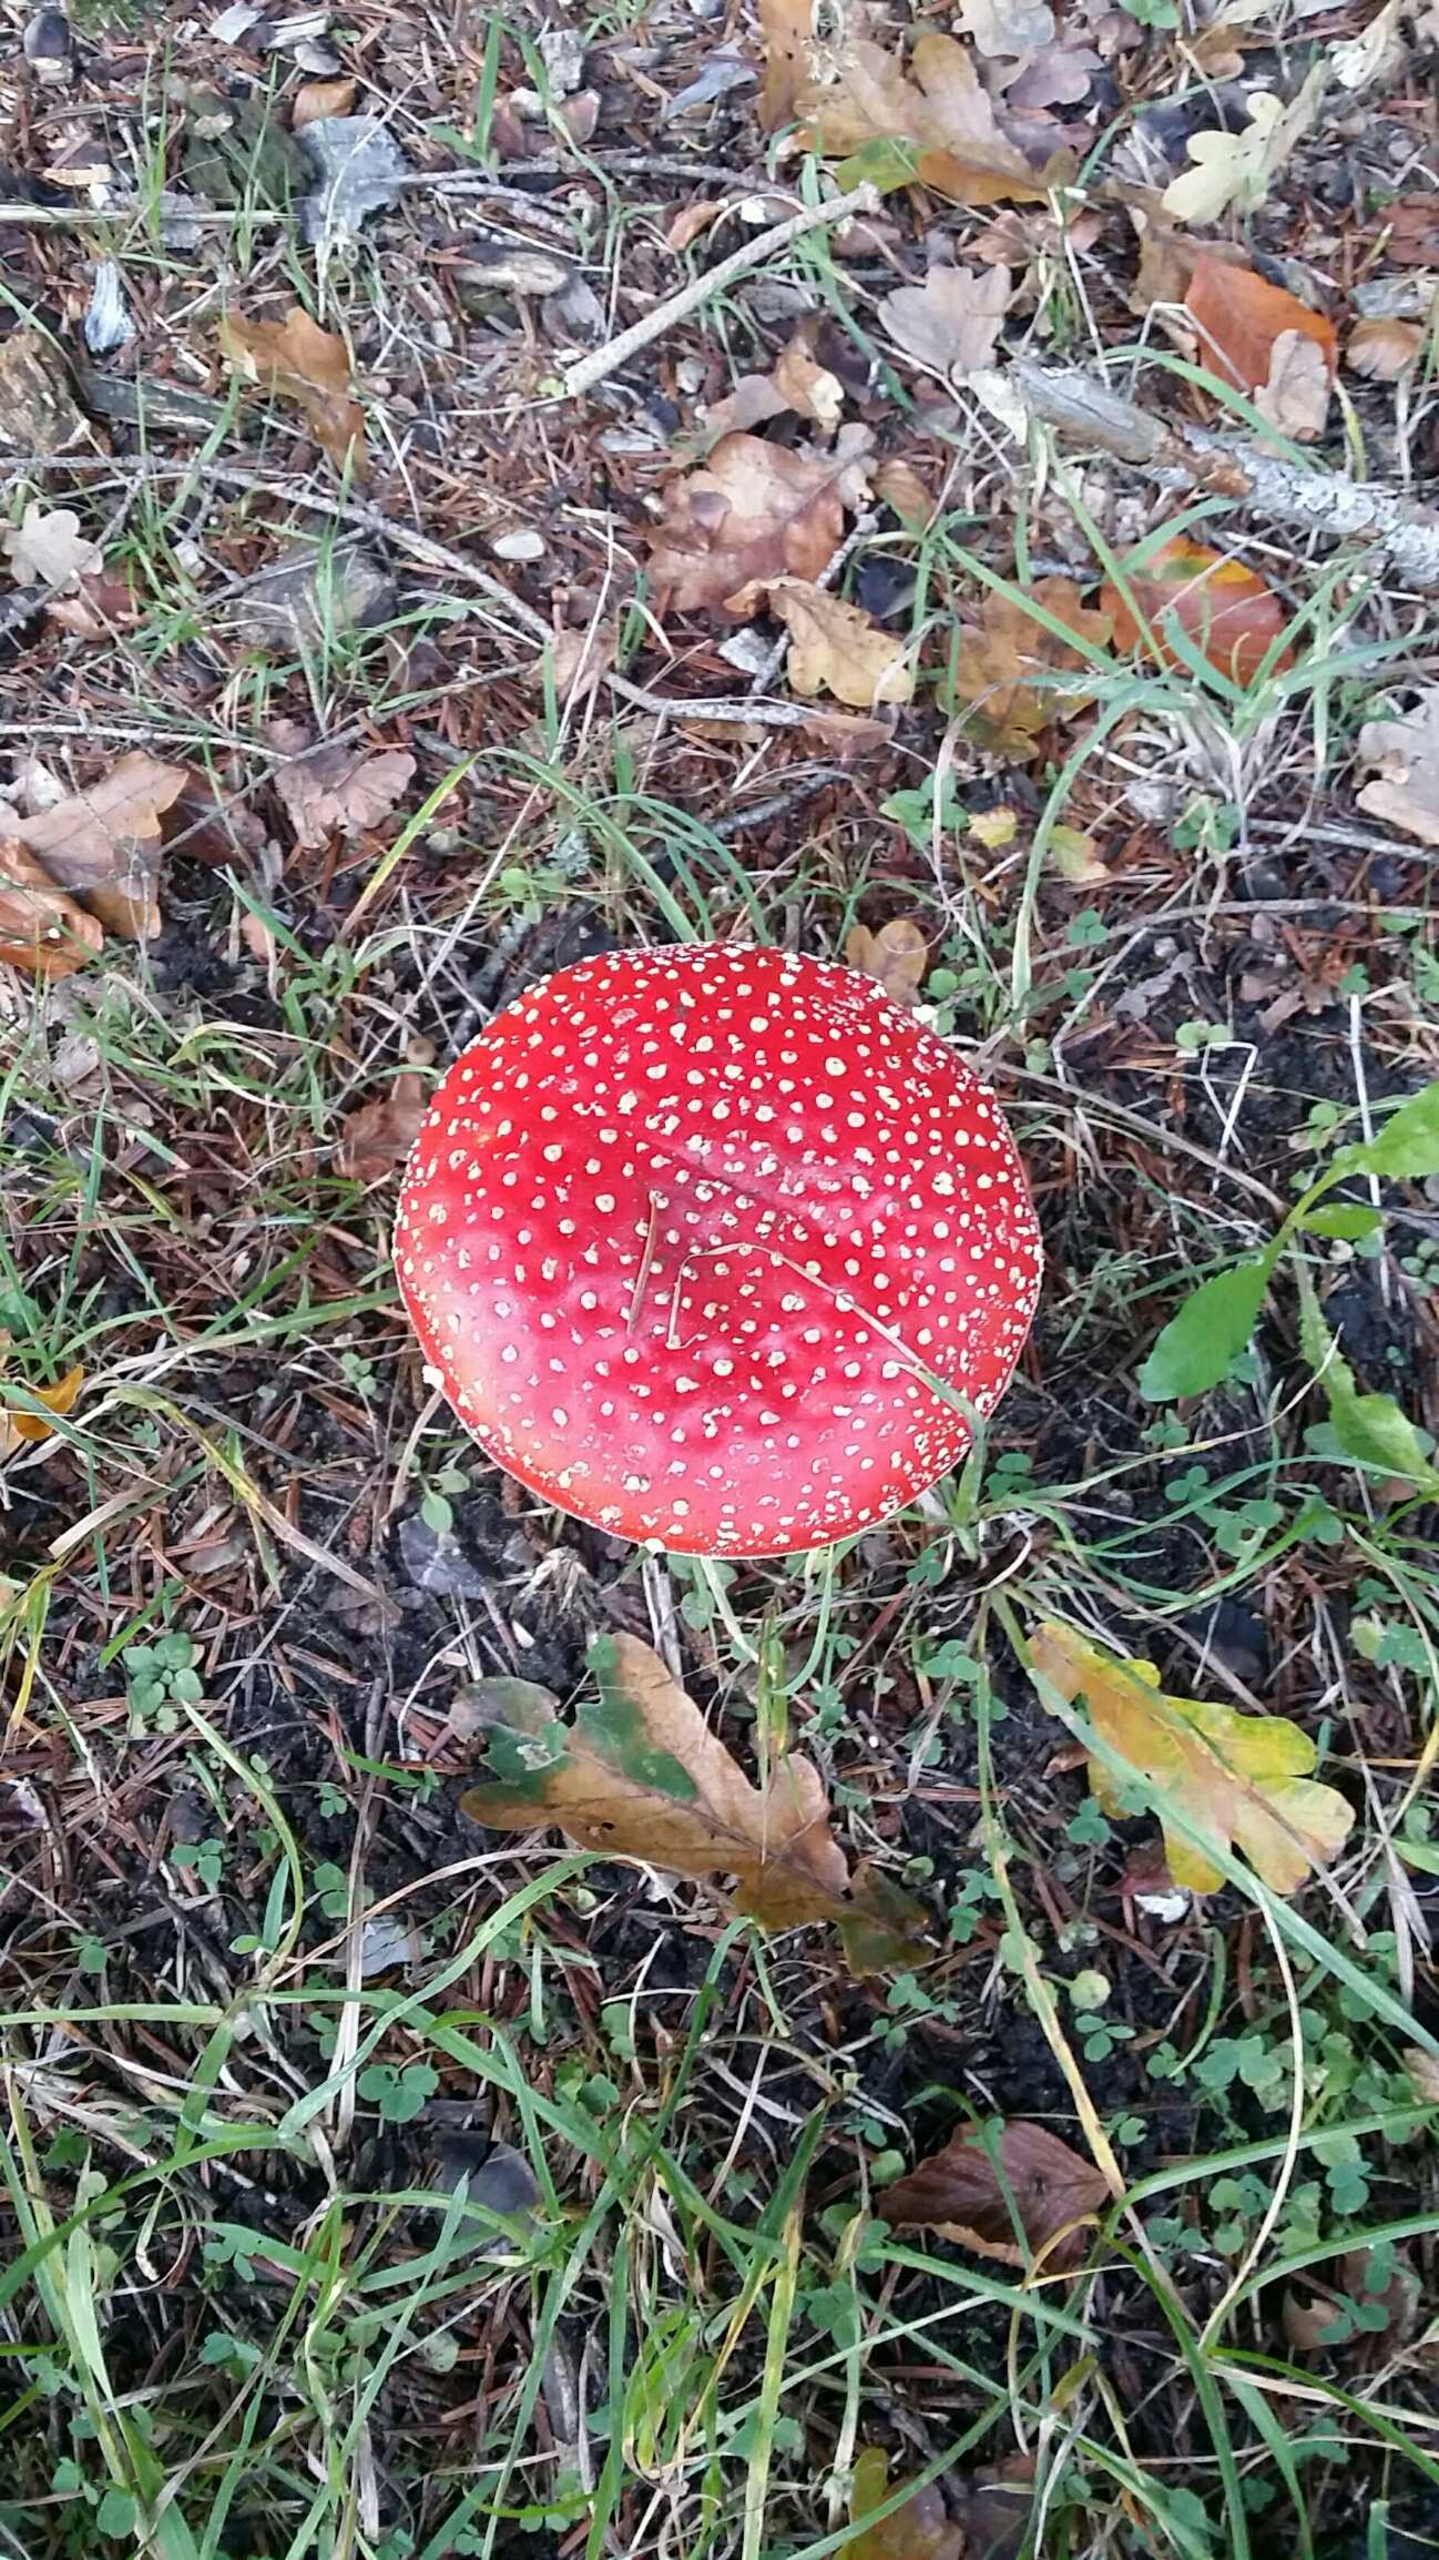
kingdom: Fungi
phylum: Basidiomycota
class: Agaricomycetes
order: Agaricales
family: Amanitaceae
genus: Amanita
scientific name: Amanita muscaria
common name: Rød fluesvamp
